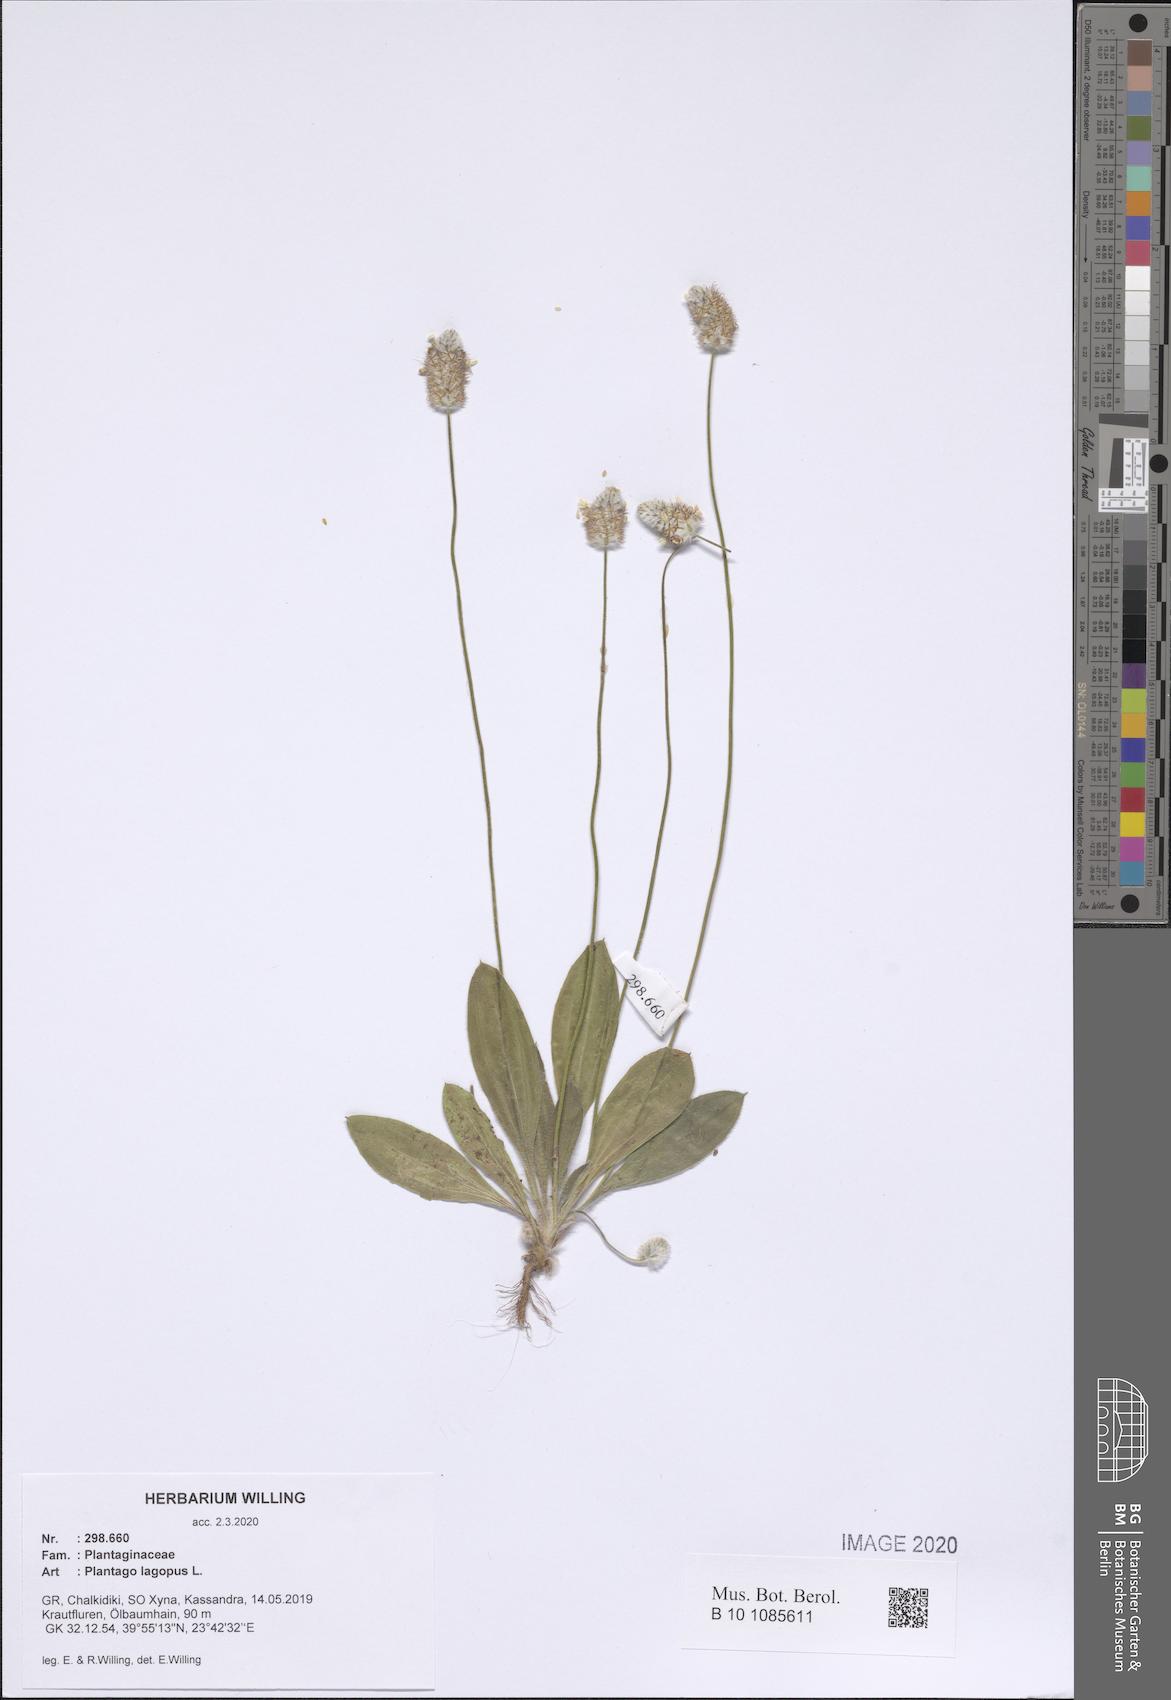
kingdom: Plantae
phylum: Tracheophyta
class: Magnoliopsida
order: Lamiales
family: Plantaginaceae
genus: Plantago
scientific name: Plantago lagopus
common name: Hare-foot plantain
